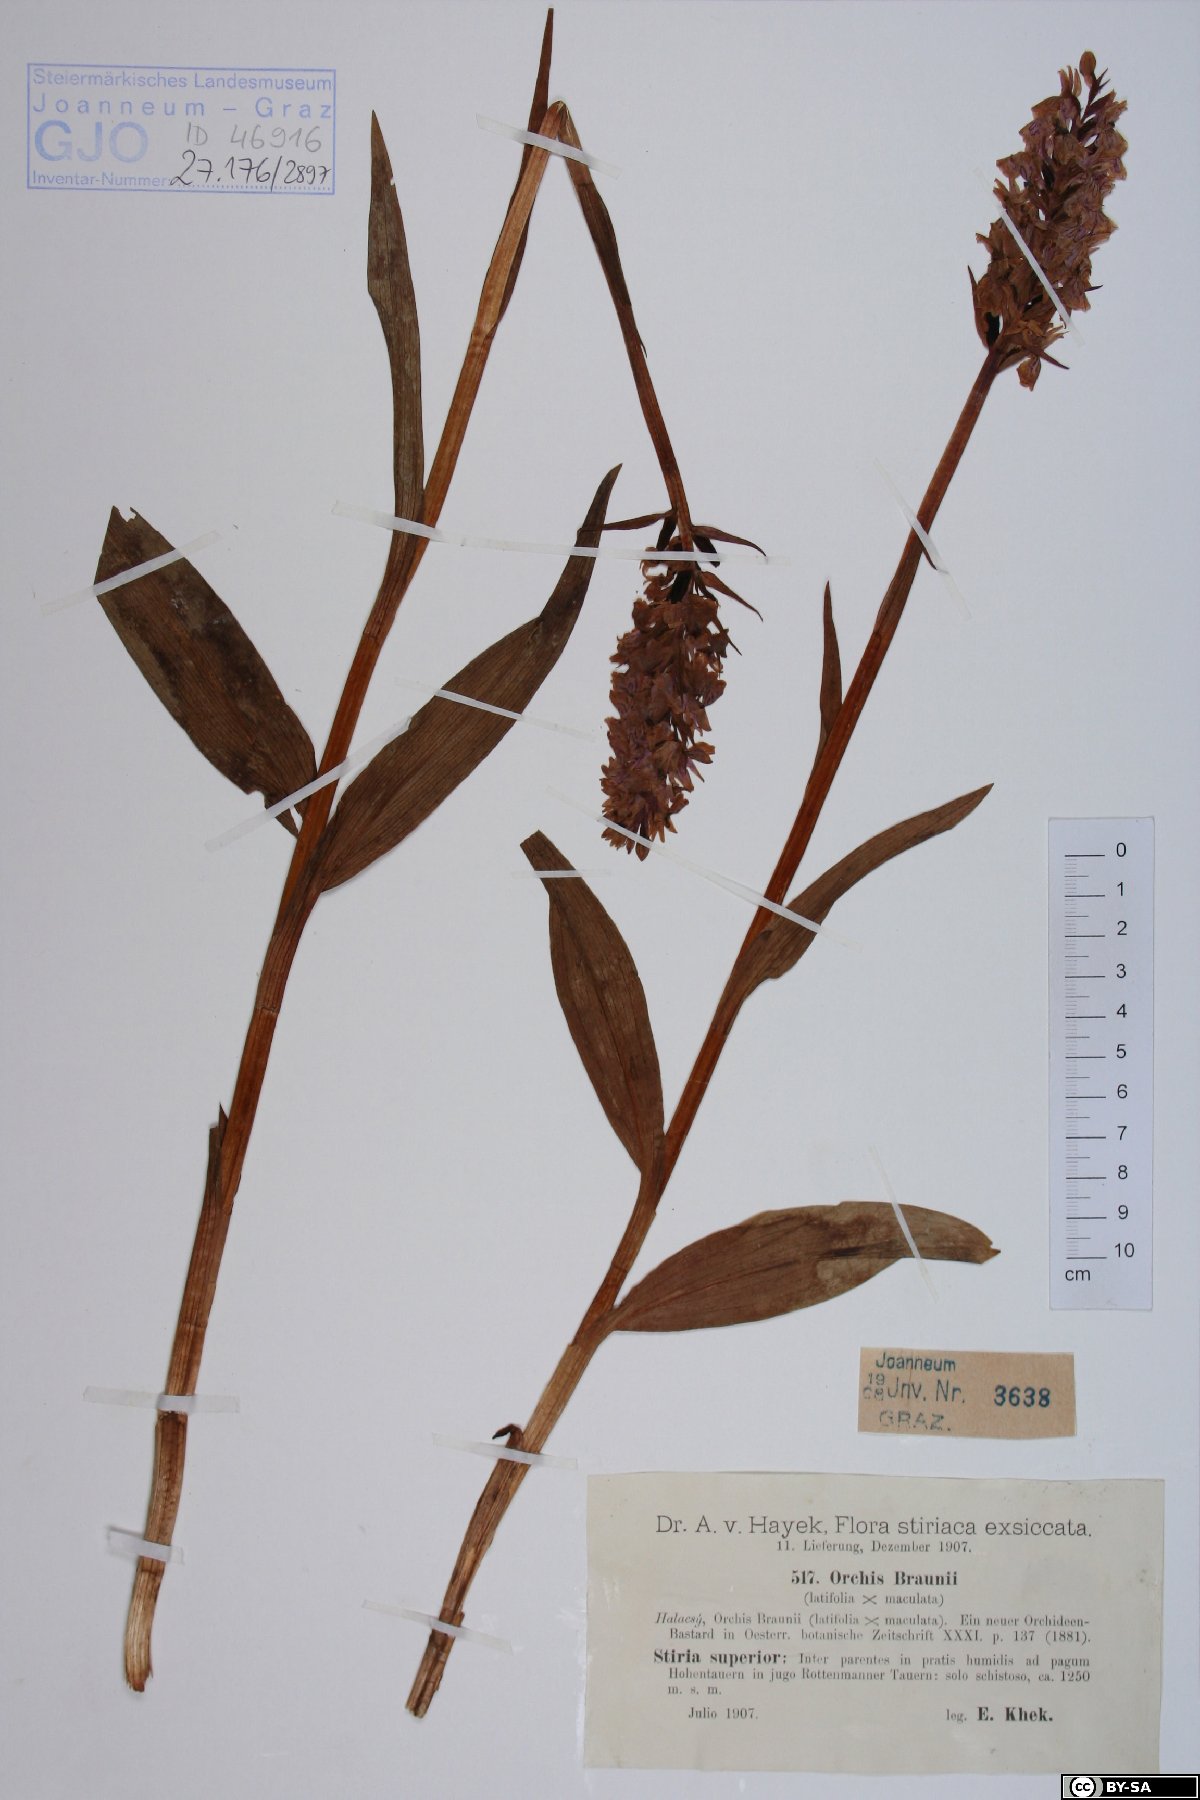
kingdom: Plantae
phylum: Tracheophyta
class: Liliopsida
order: Asparagales
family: Orchidaceae
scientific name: Orchidaceae
